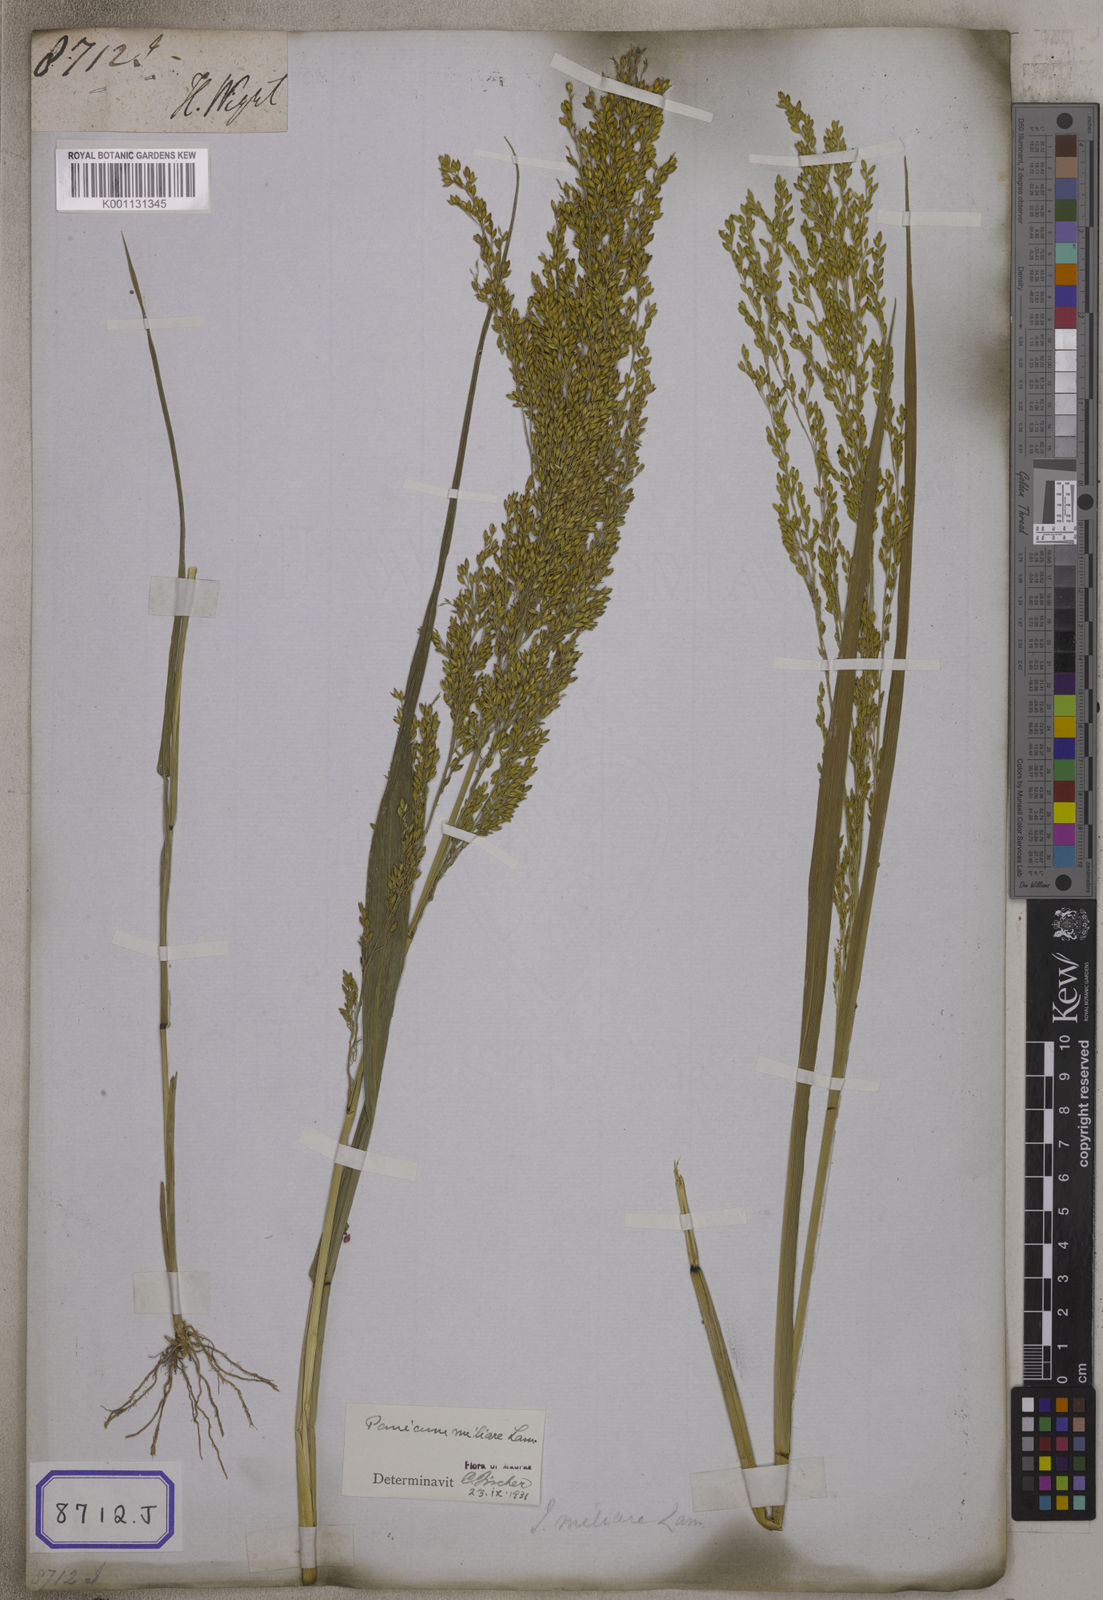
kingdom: Plantae
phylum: Tracheophyta
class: Liliopsida
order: Poales
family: Poaceae
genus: Panicum
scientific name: Panicum antidotale
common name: Blue panicum
